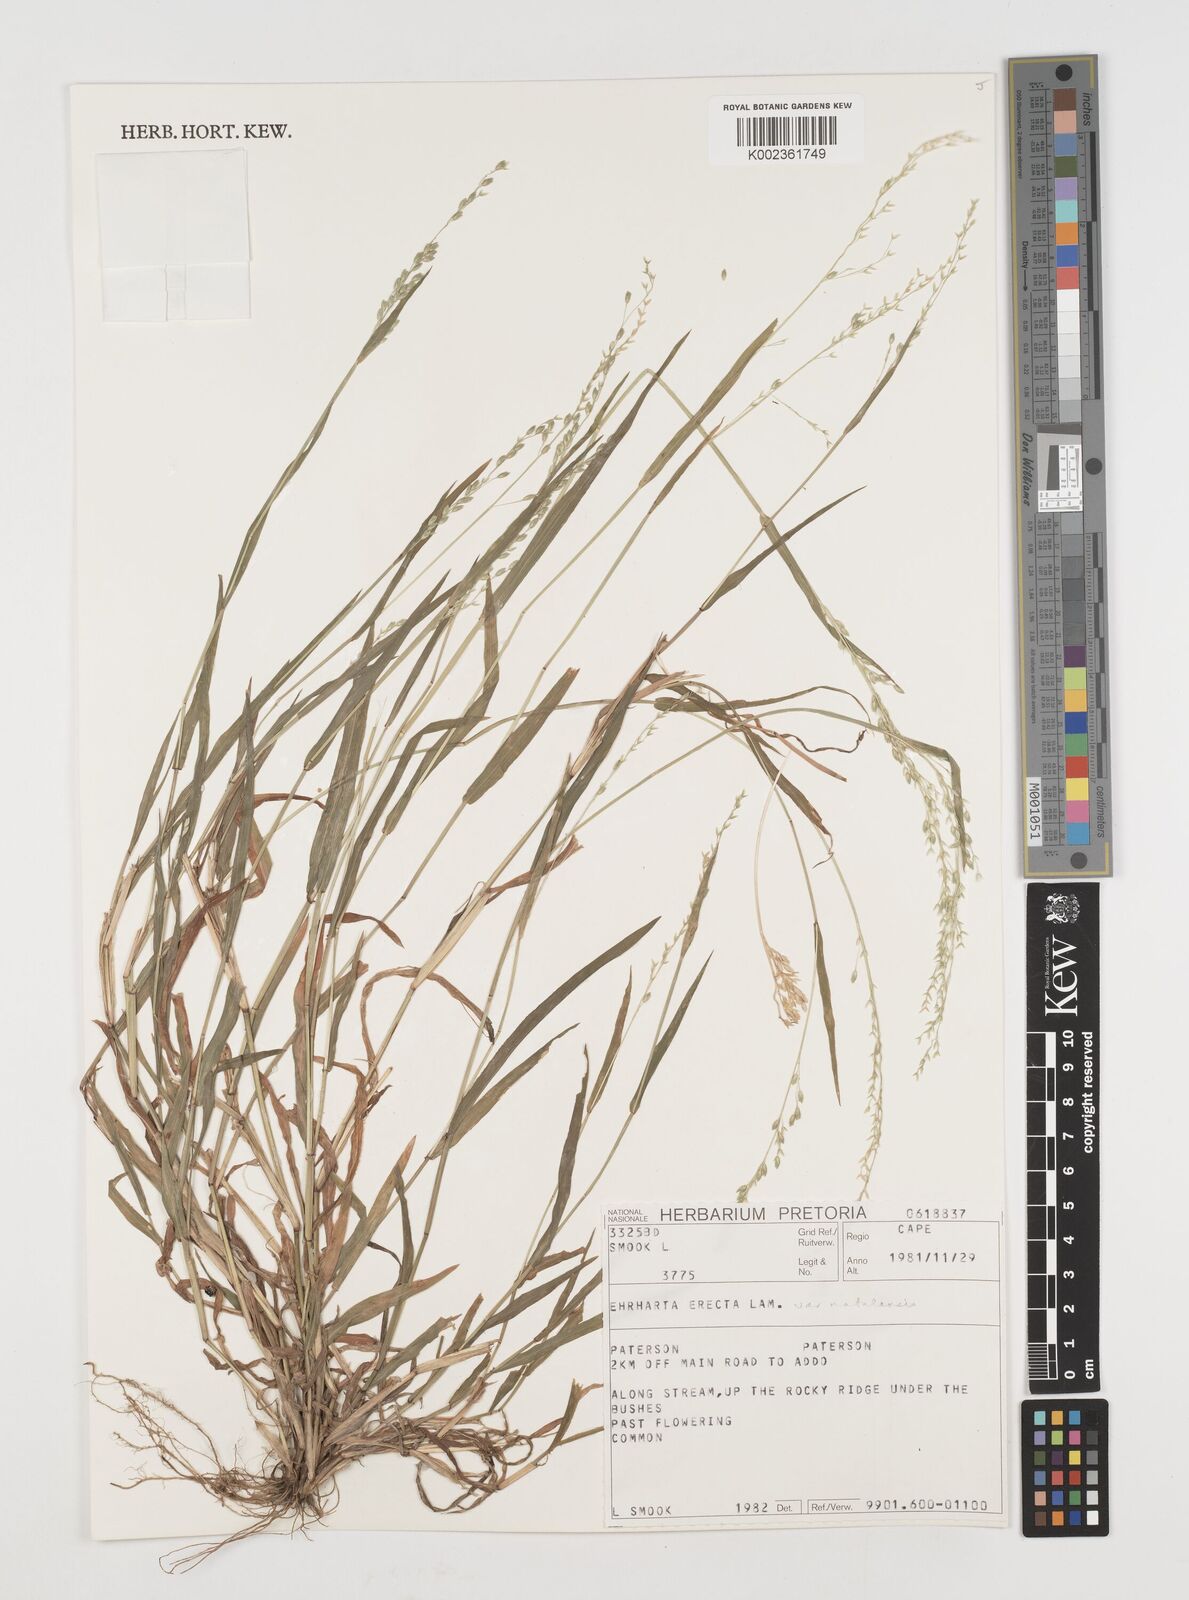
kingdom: Plantae
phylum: Tracheophyta
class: Liliopsida
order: Poales
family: Poaceae
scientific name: Poaceae
